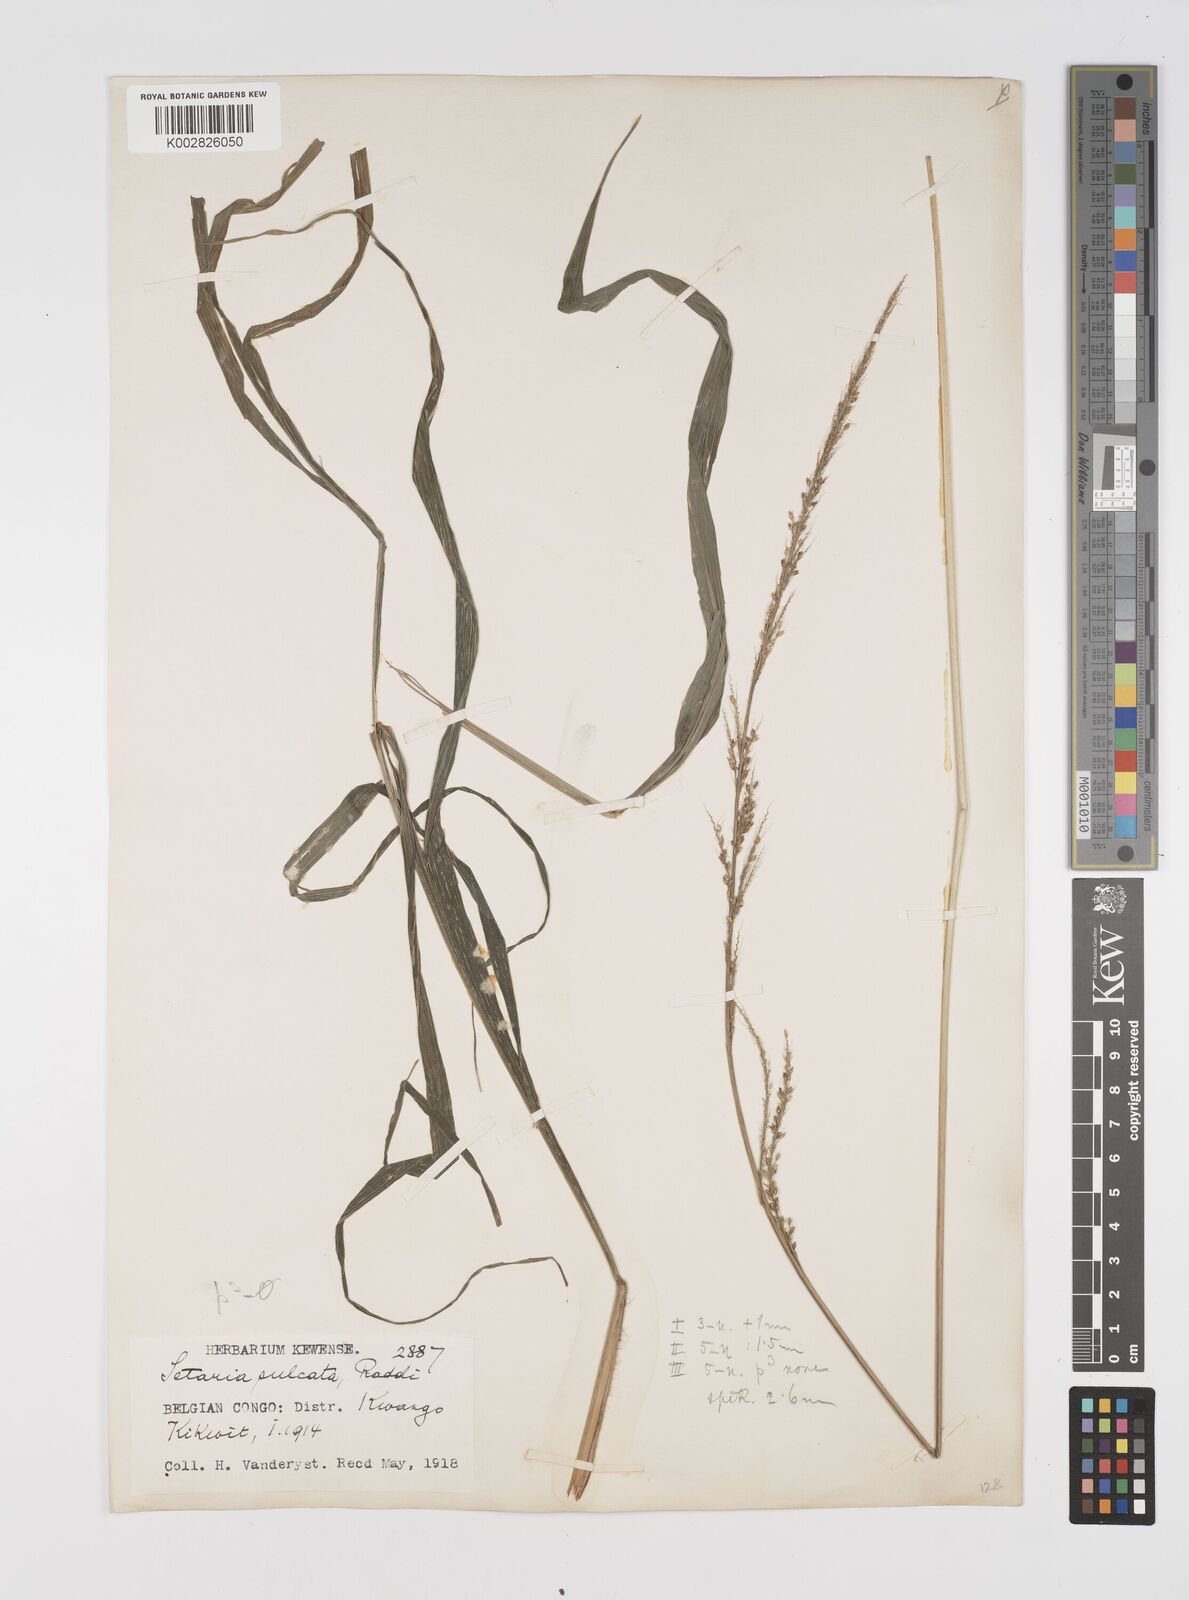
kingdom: Plantae
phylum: Tracheophyta
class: Liliopsida
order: Poales
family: Poaceae
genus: Setaria
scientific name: Setaria megaphylla
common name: Bigleaf bristlegrass
